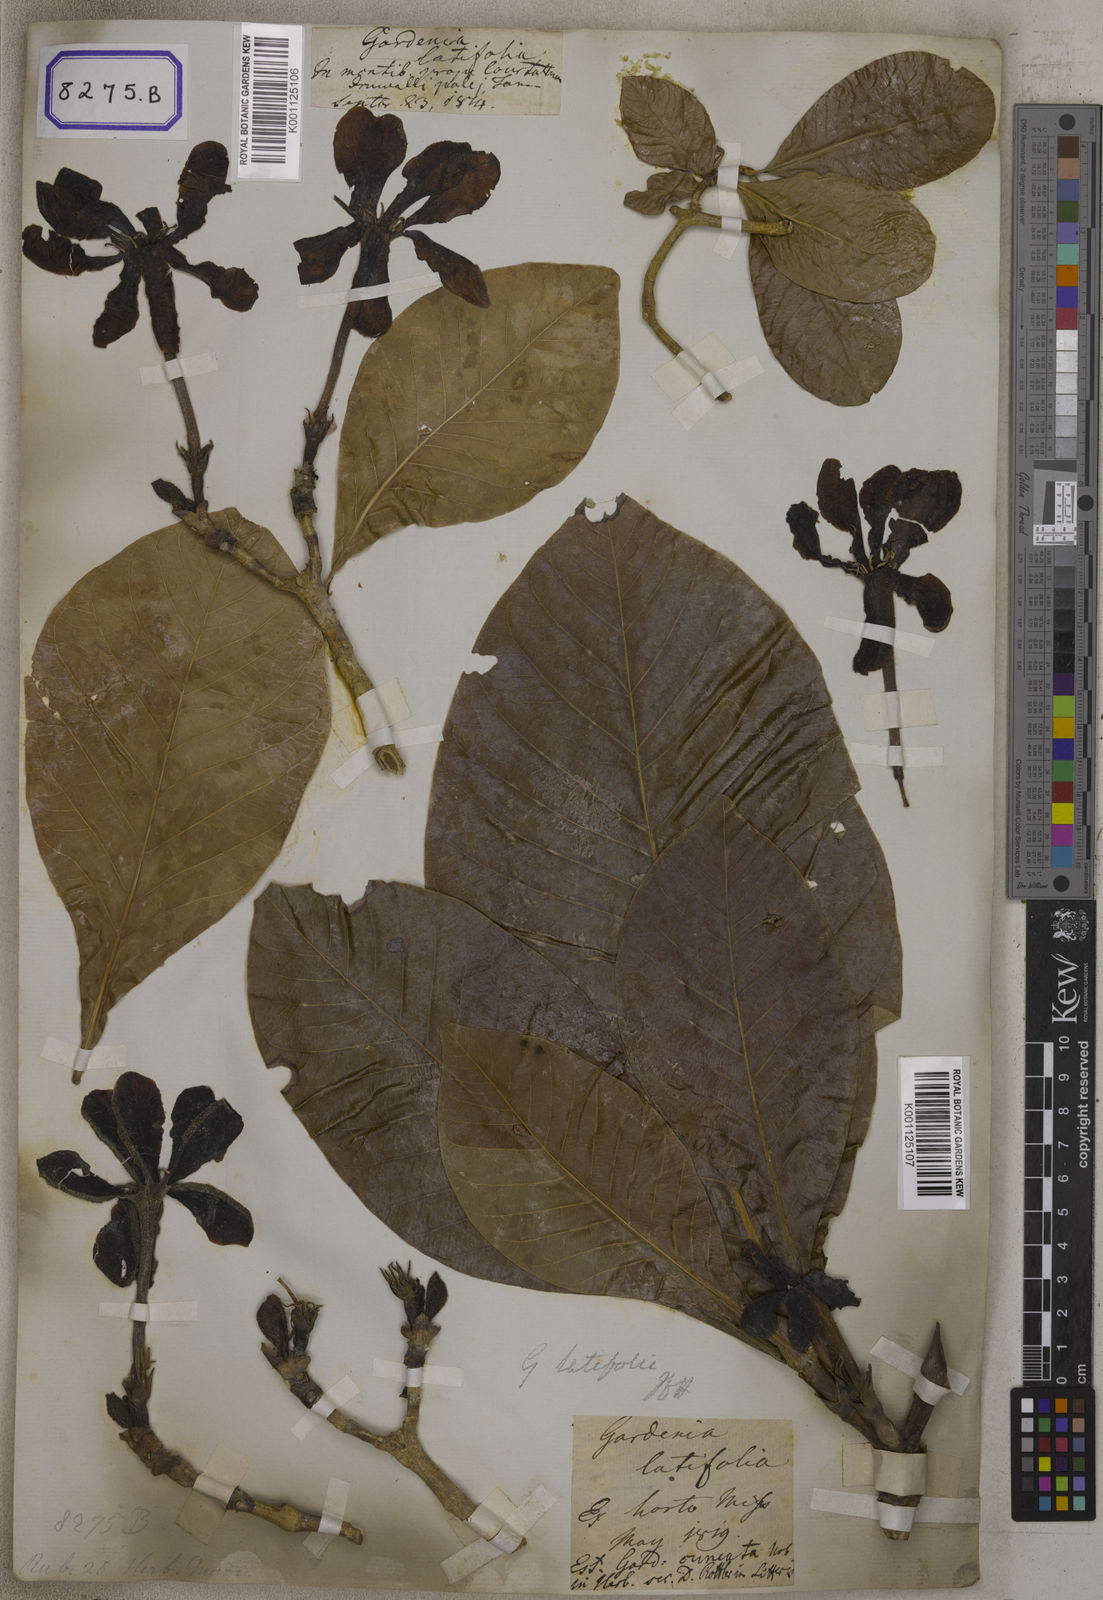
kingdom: Plantae
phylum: Tracheophyta
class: Magnoliopsida
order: Gentianales
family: Rubiaceae
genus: Gardenia
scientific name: Gardenia
